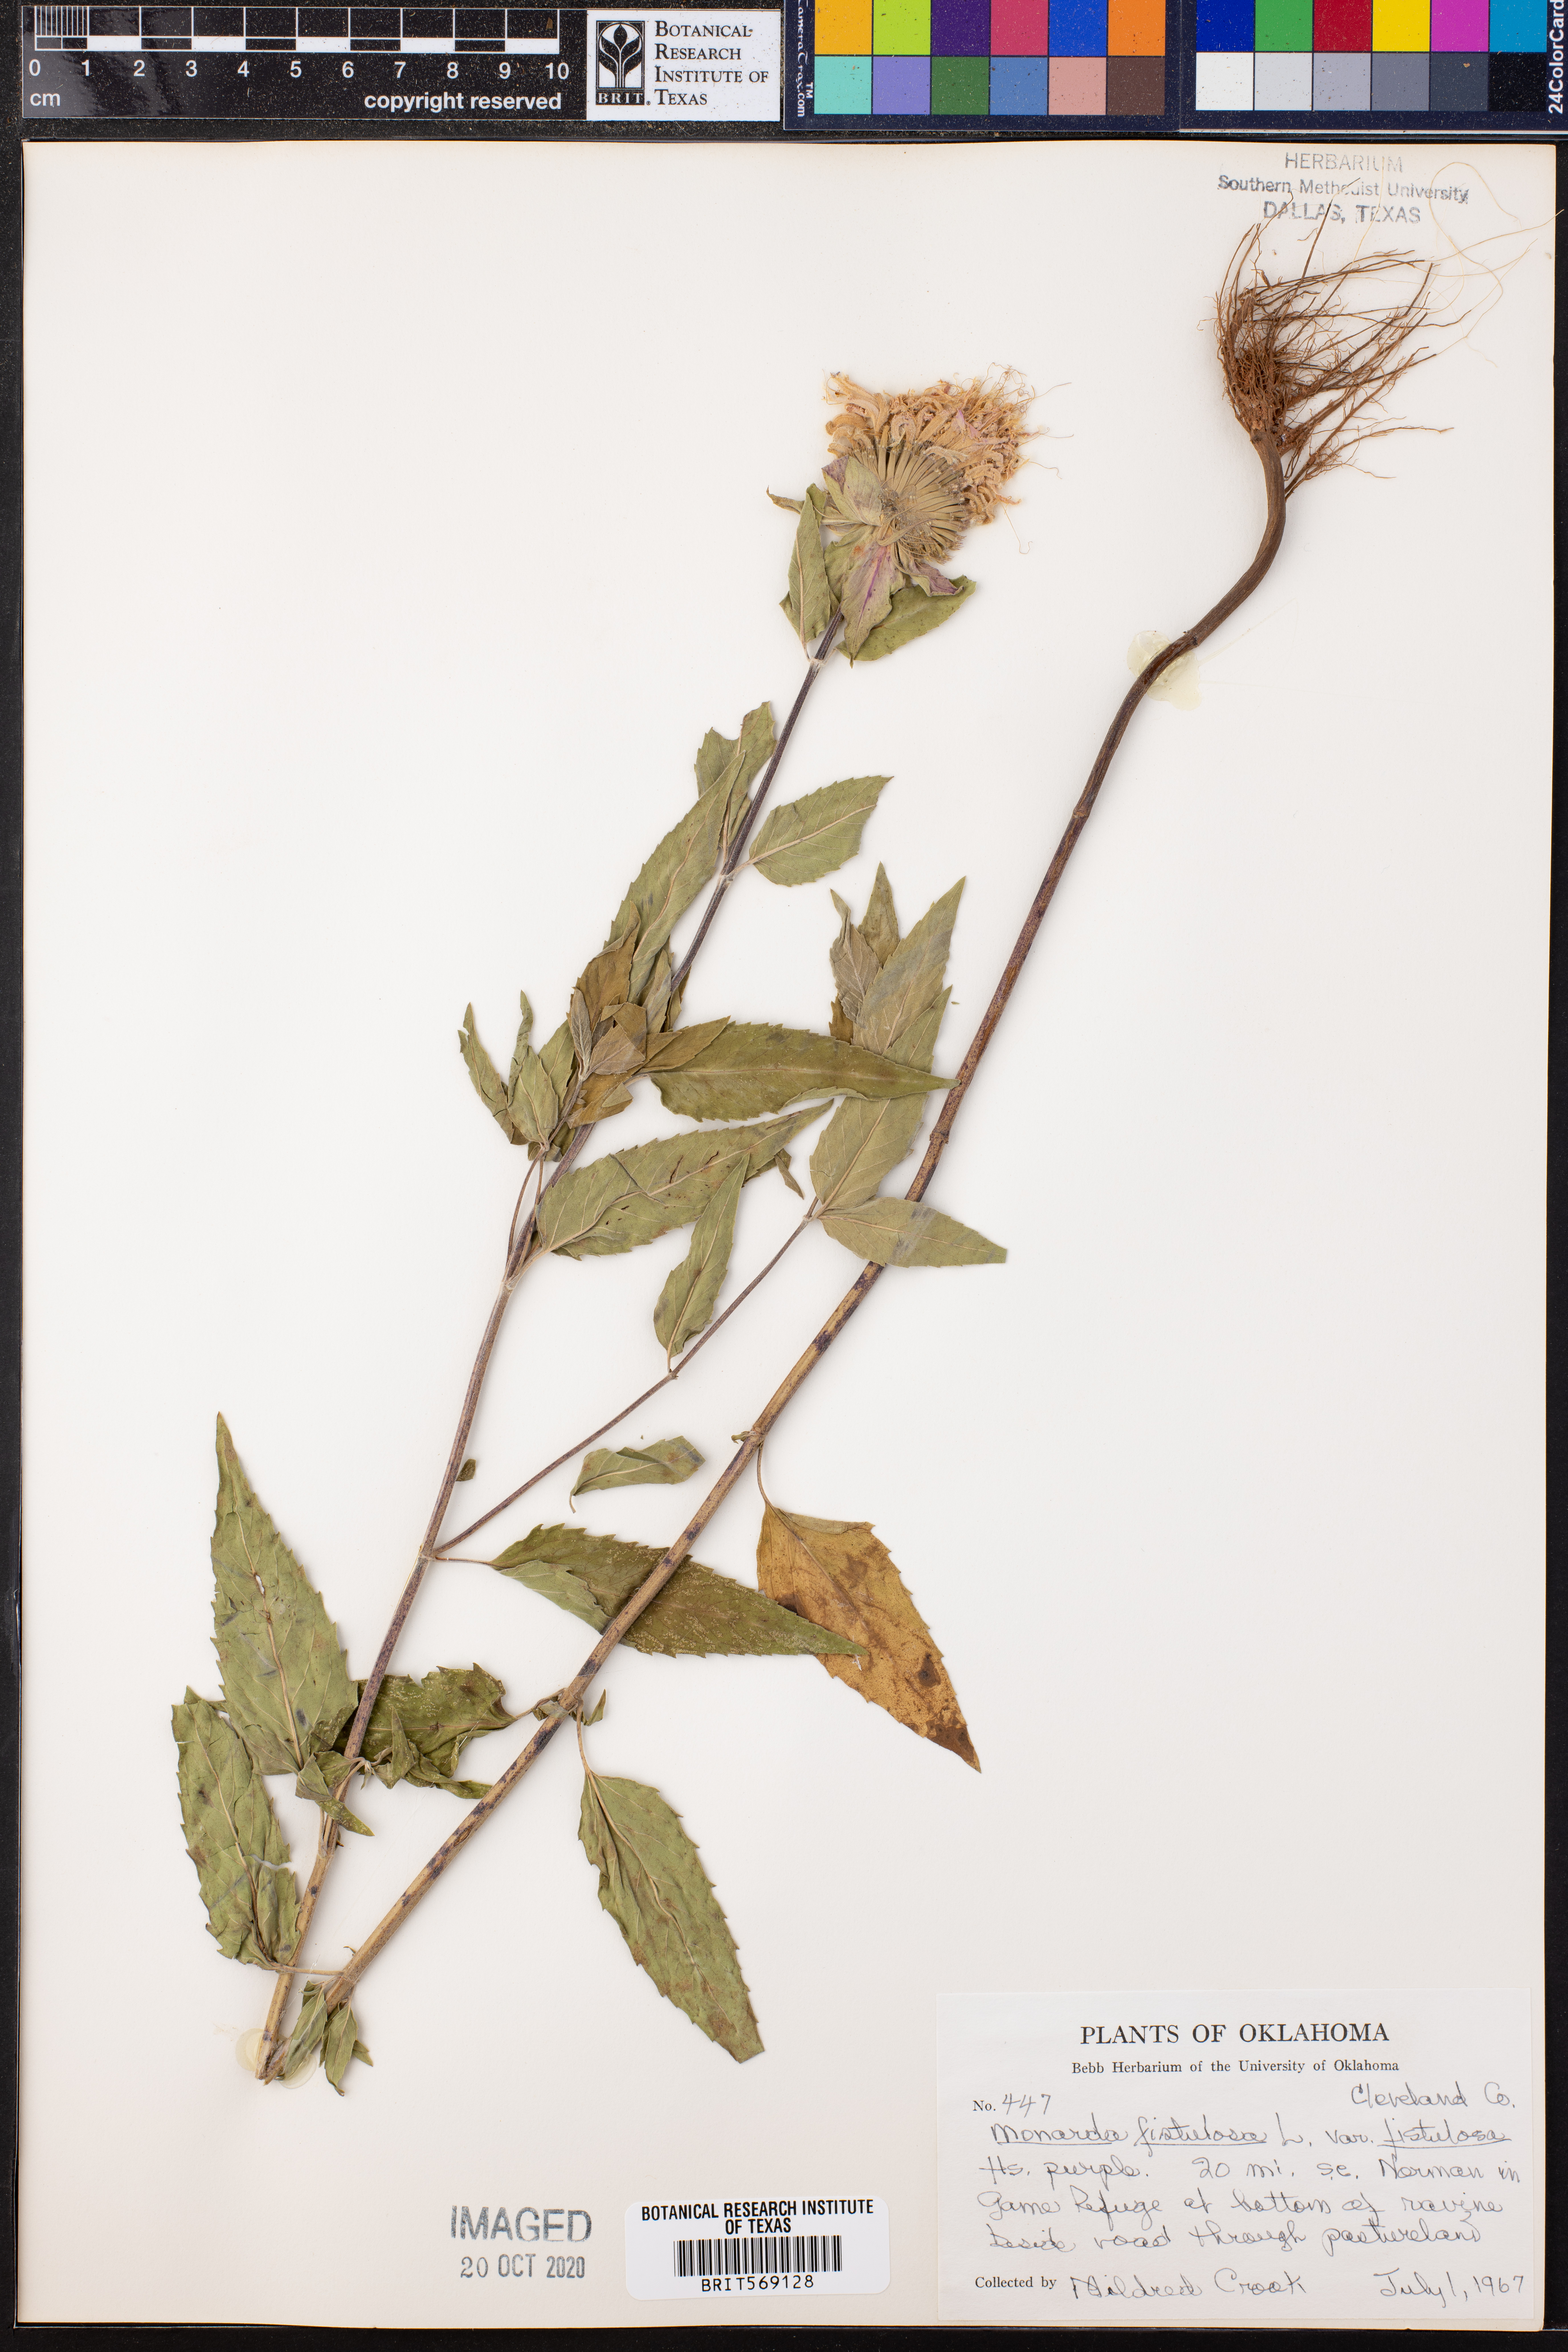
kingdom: Plantae
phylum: Tracheophyta
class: Magnoliopsida
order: Lamiales
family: Lamiaceae
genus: Monarda
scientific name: Monarda fistulosa
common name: Purple beebalm
